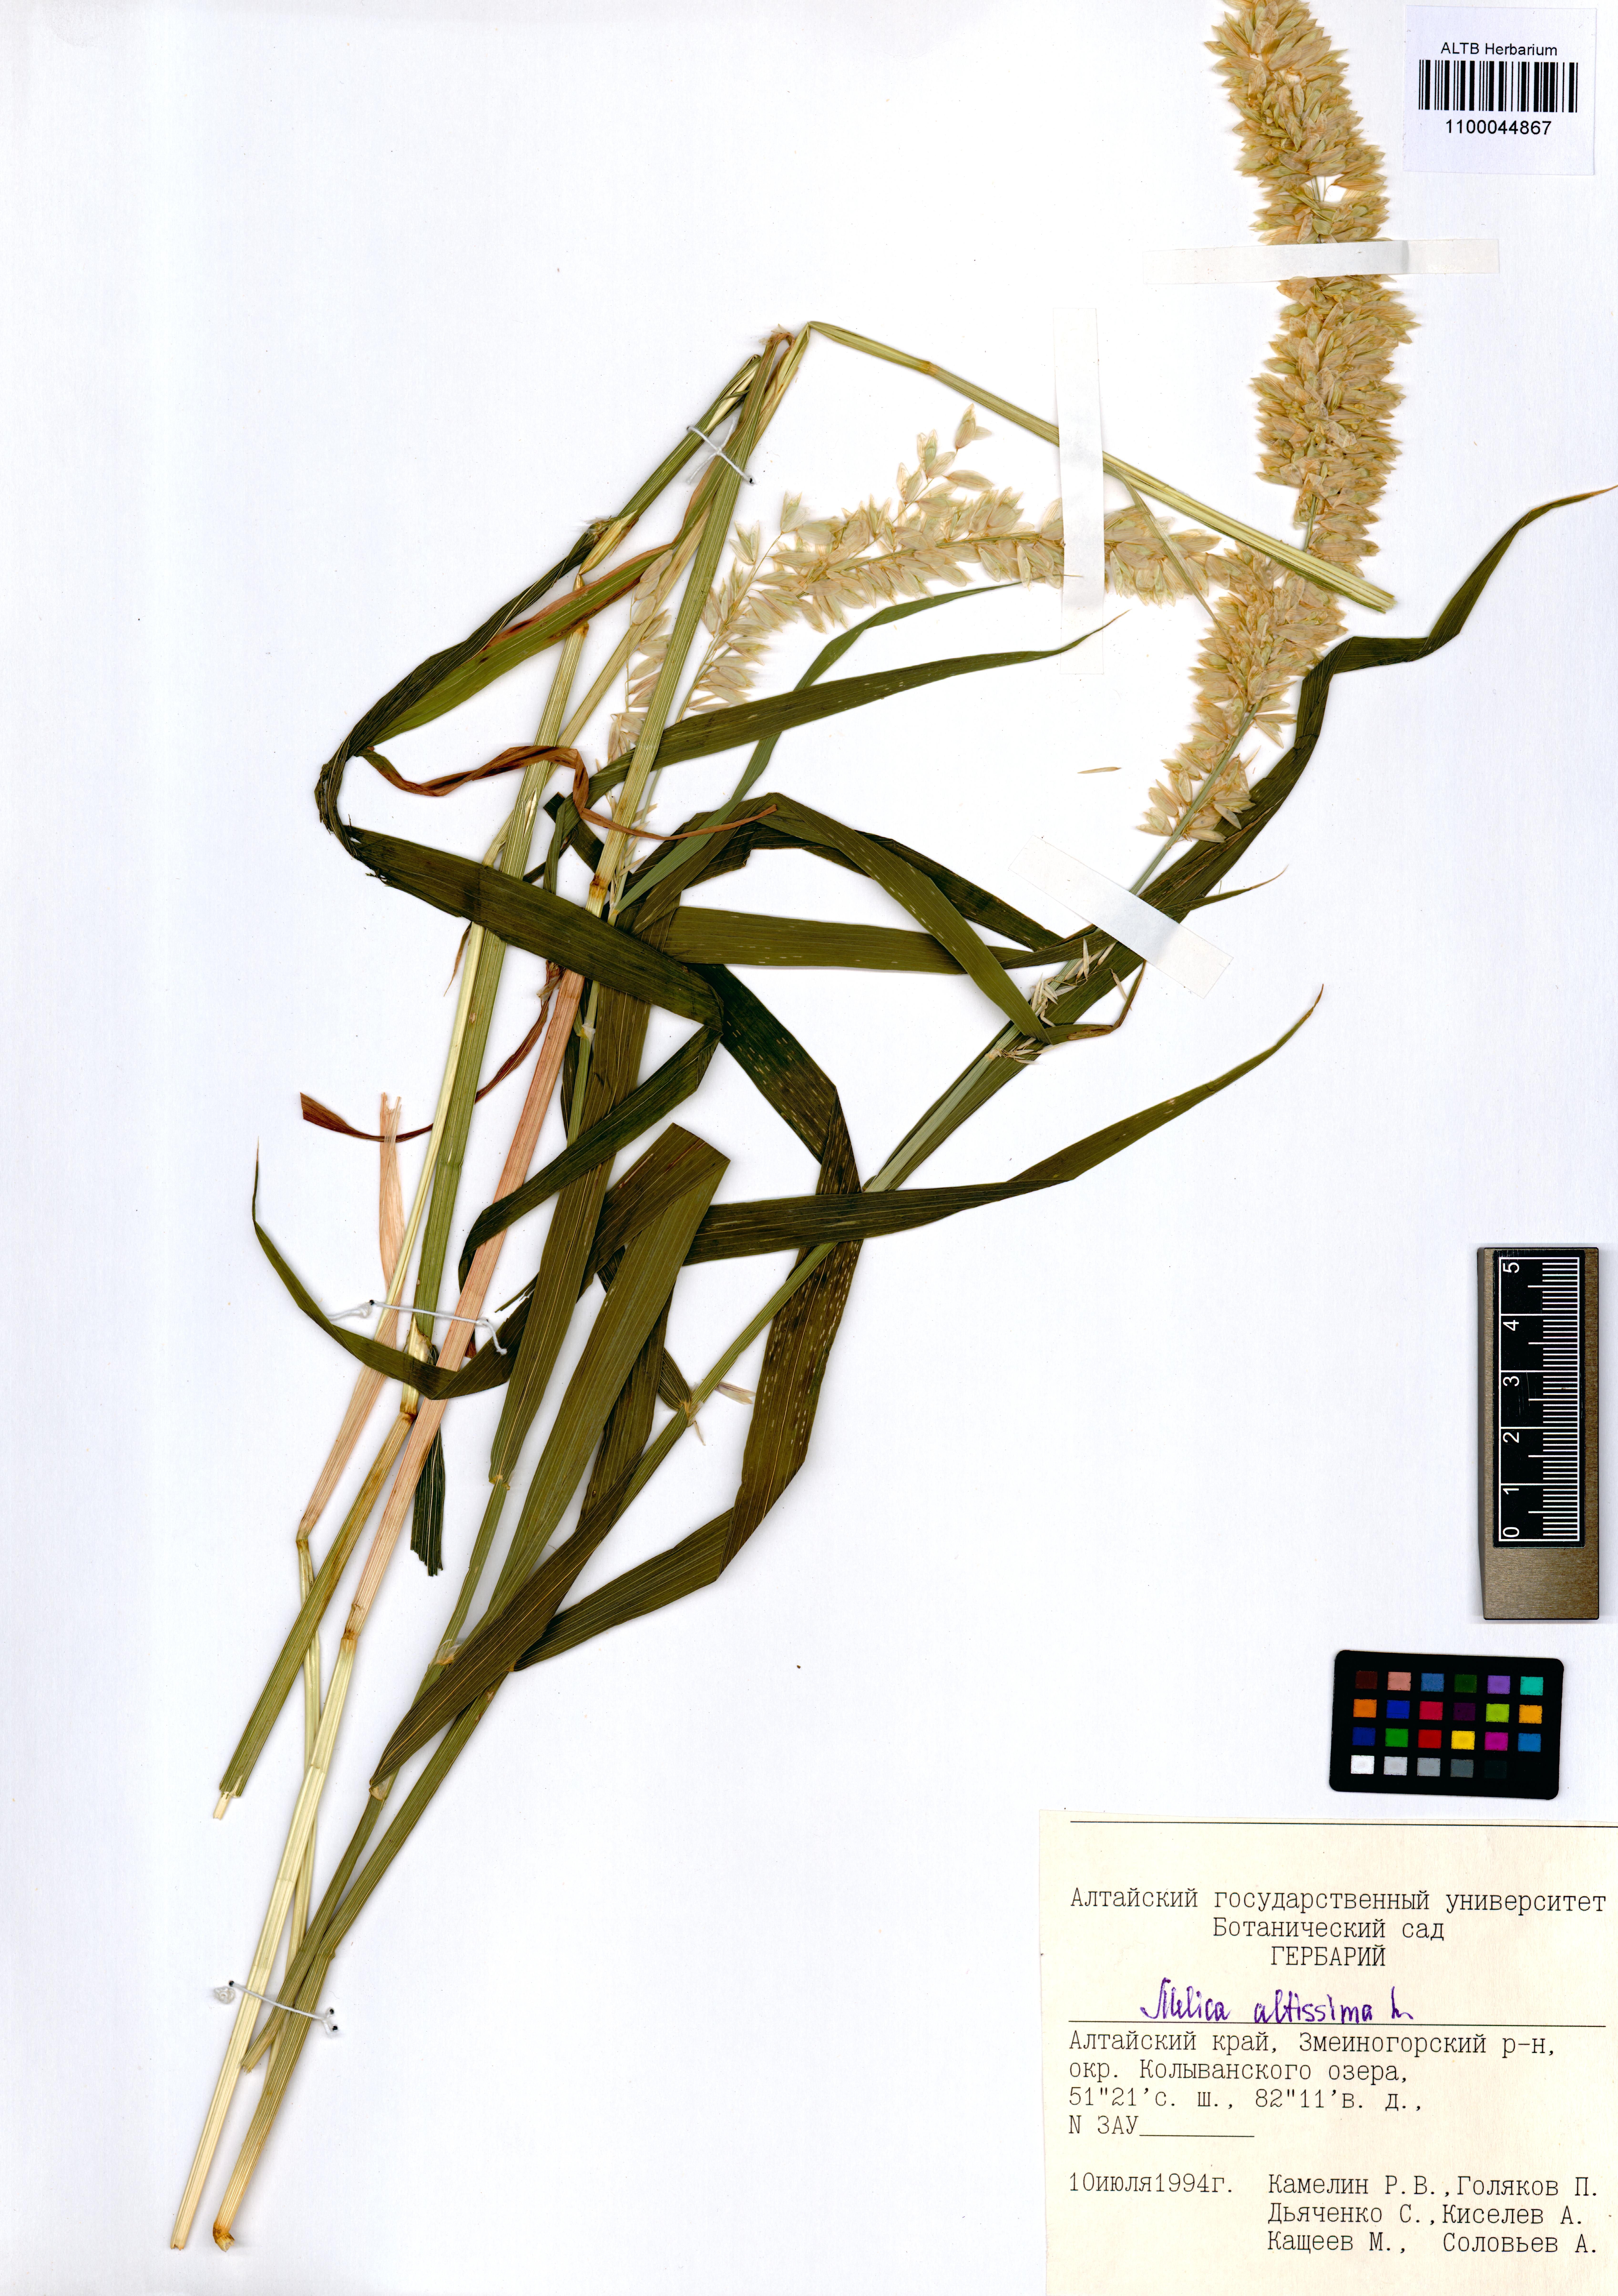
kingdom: Plantae
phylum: Tracheophyta
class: Liliopsida
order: Poales
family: Poaceae
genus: Melica
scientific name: Melica altissima
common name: Siberian melicgrass
